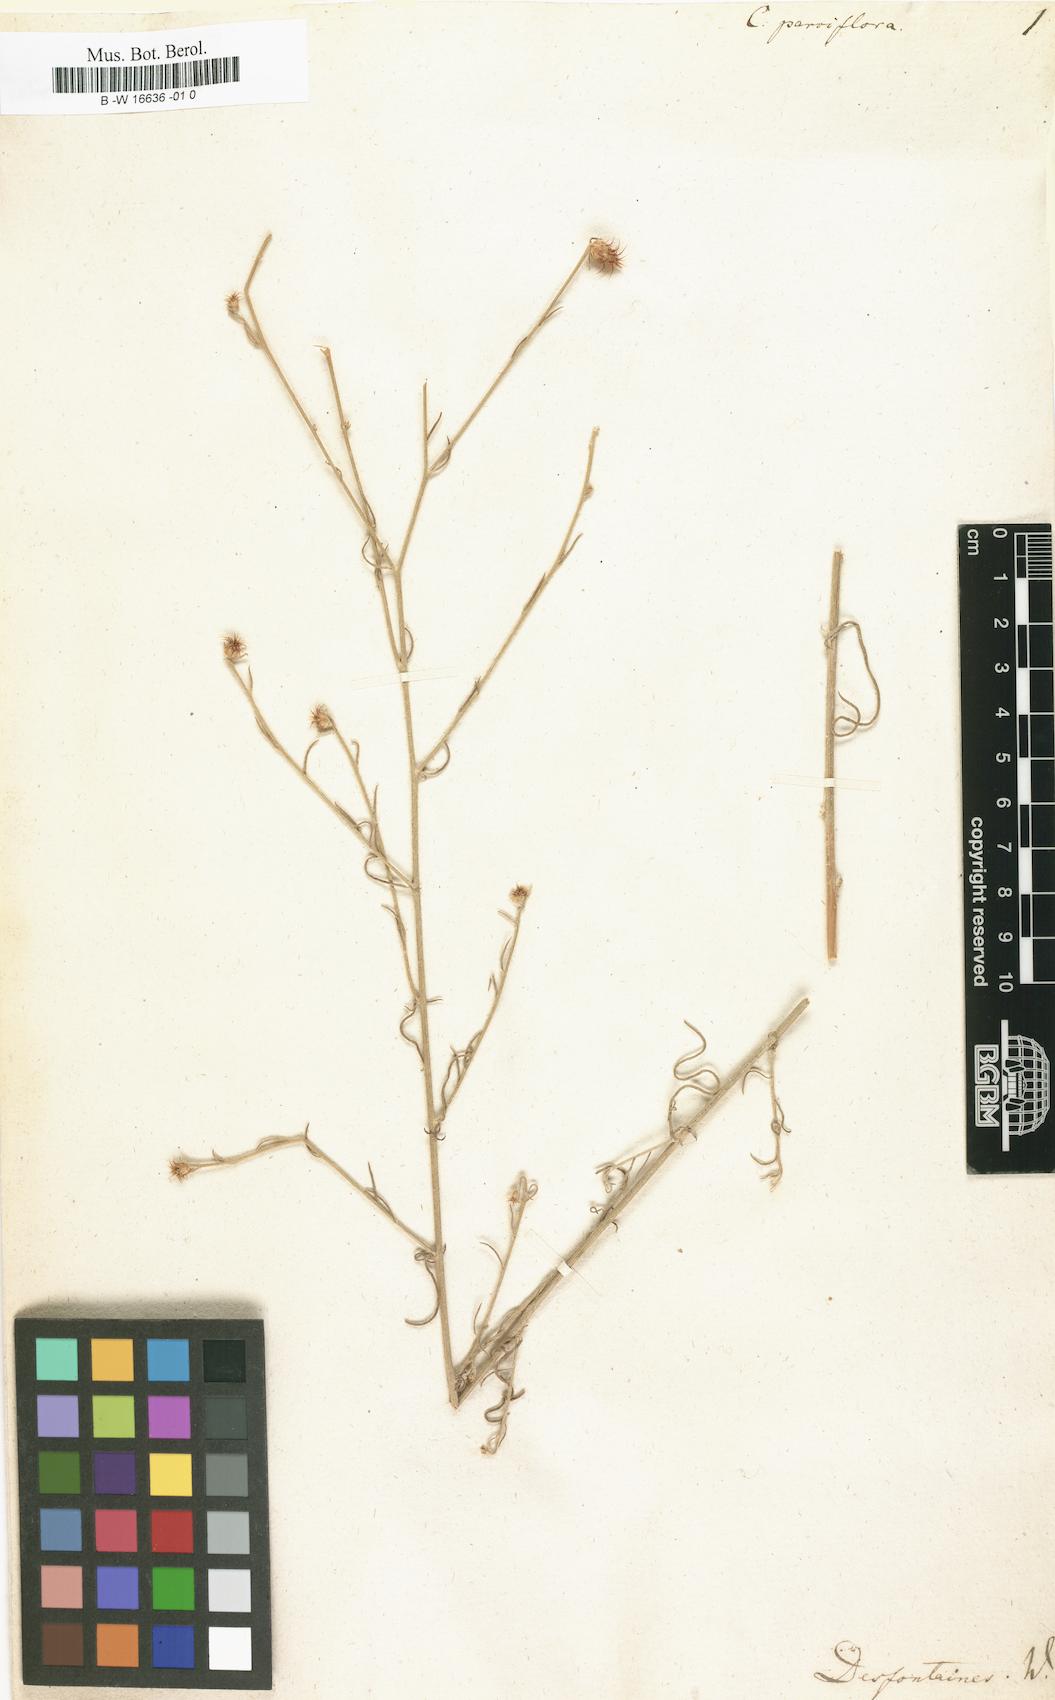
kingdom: Plantae
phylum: Tracheophyta
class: Magnoliopsida
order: Asterales
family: Asteraceae
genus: Centaurea
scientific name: Centaurea parviflora
